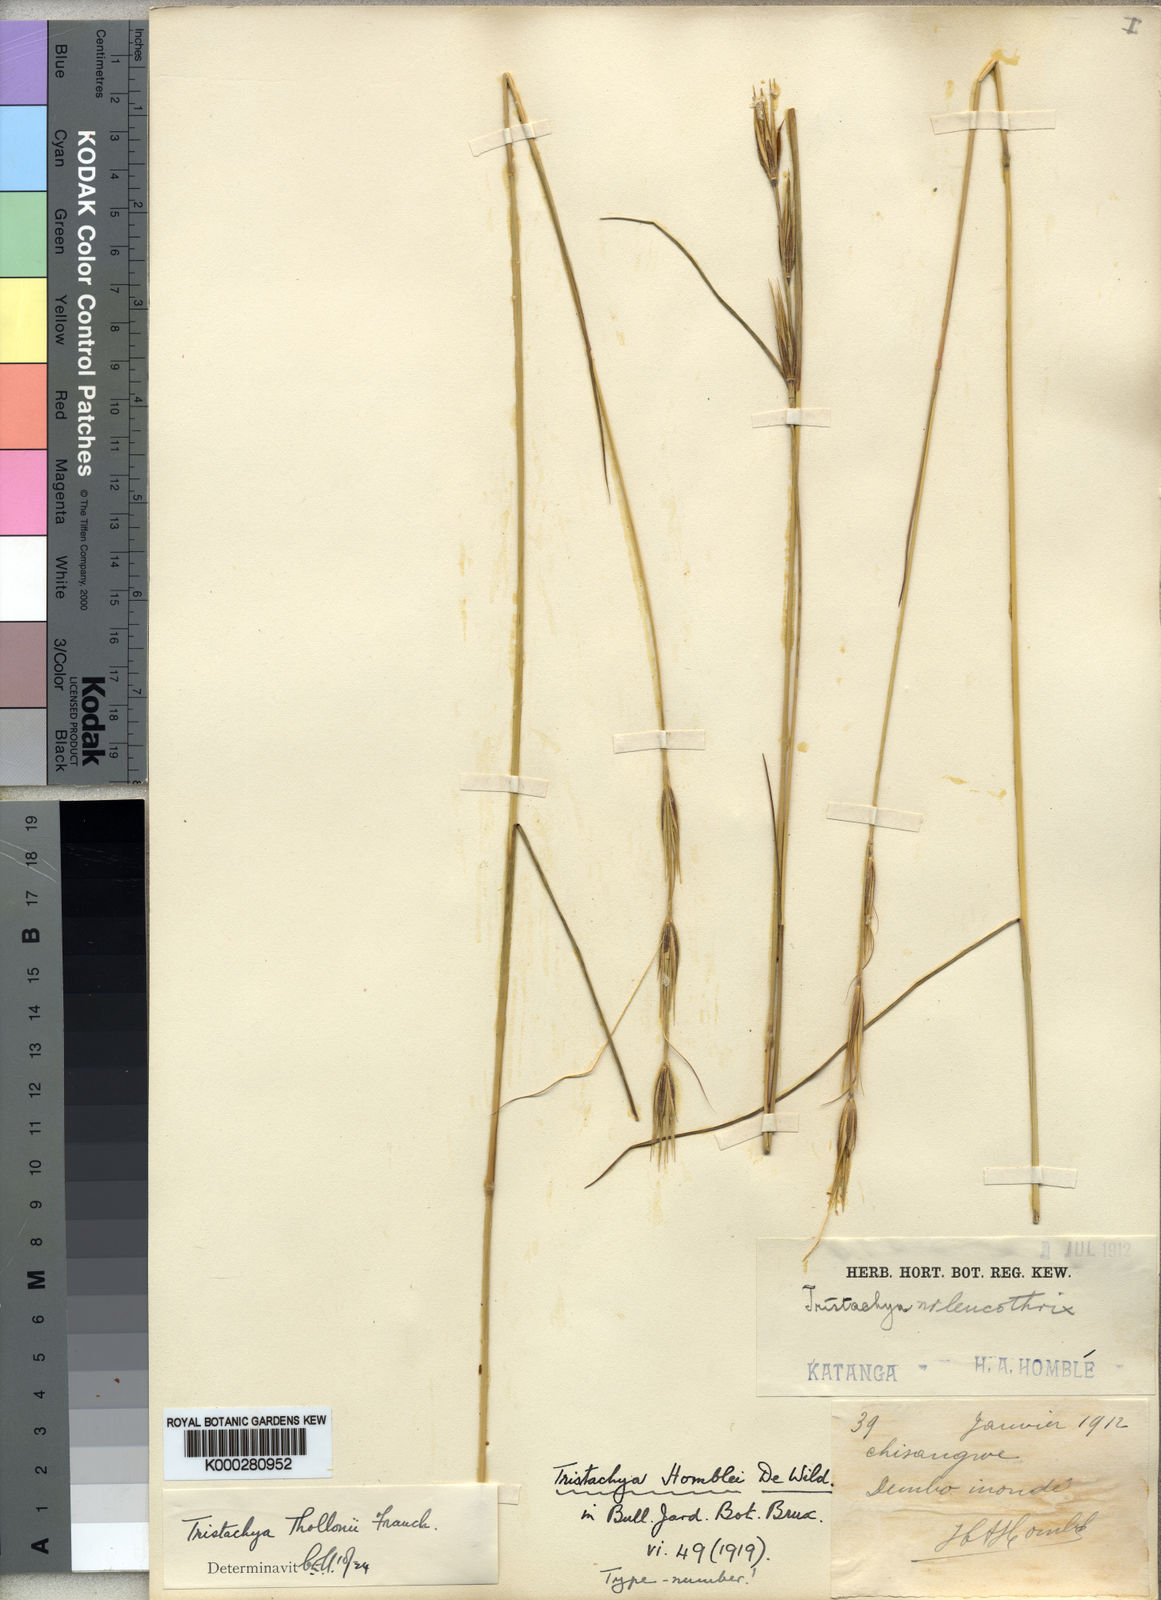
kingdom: Plantae
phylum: Tracheophyta
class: Liliopsida
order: Poales
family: Poaceae
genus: Tristachya
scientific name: Tristachya thollonii
